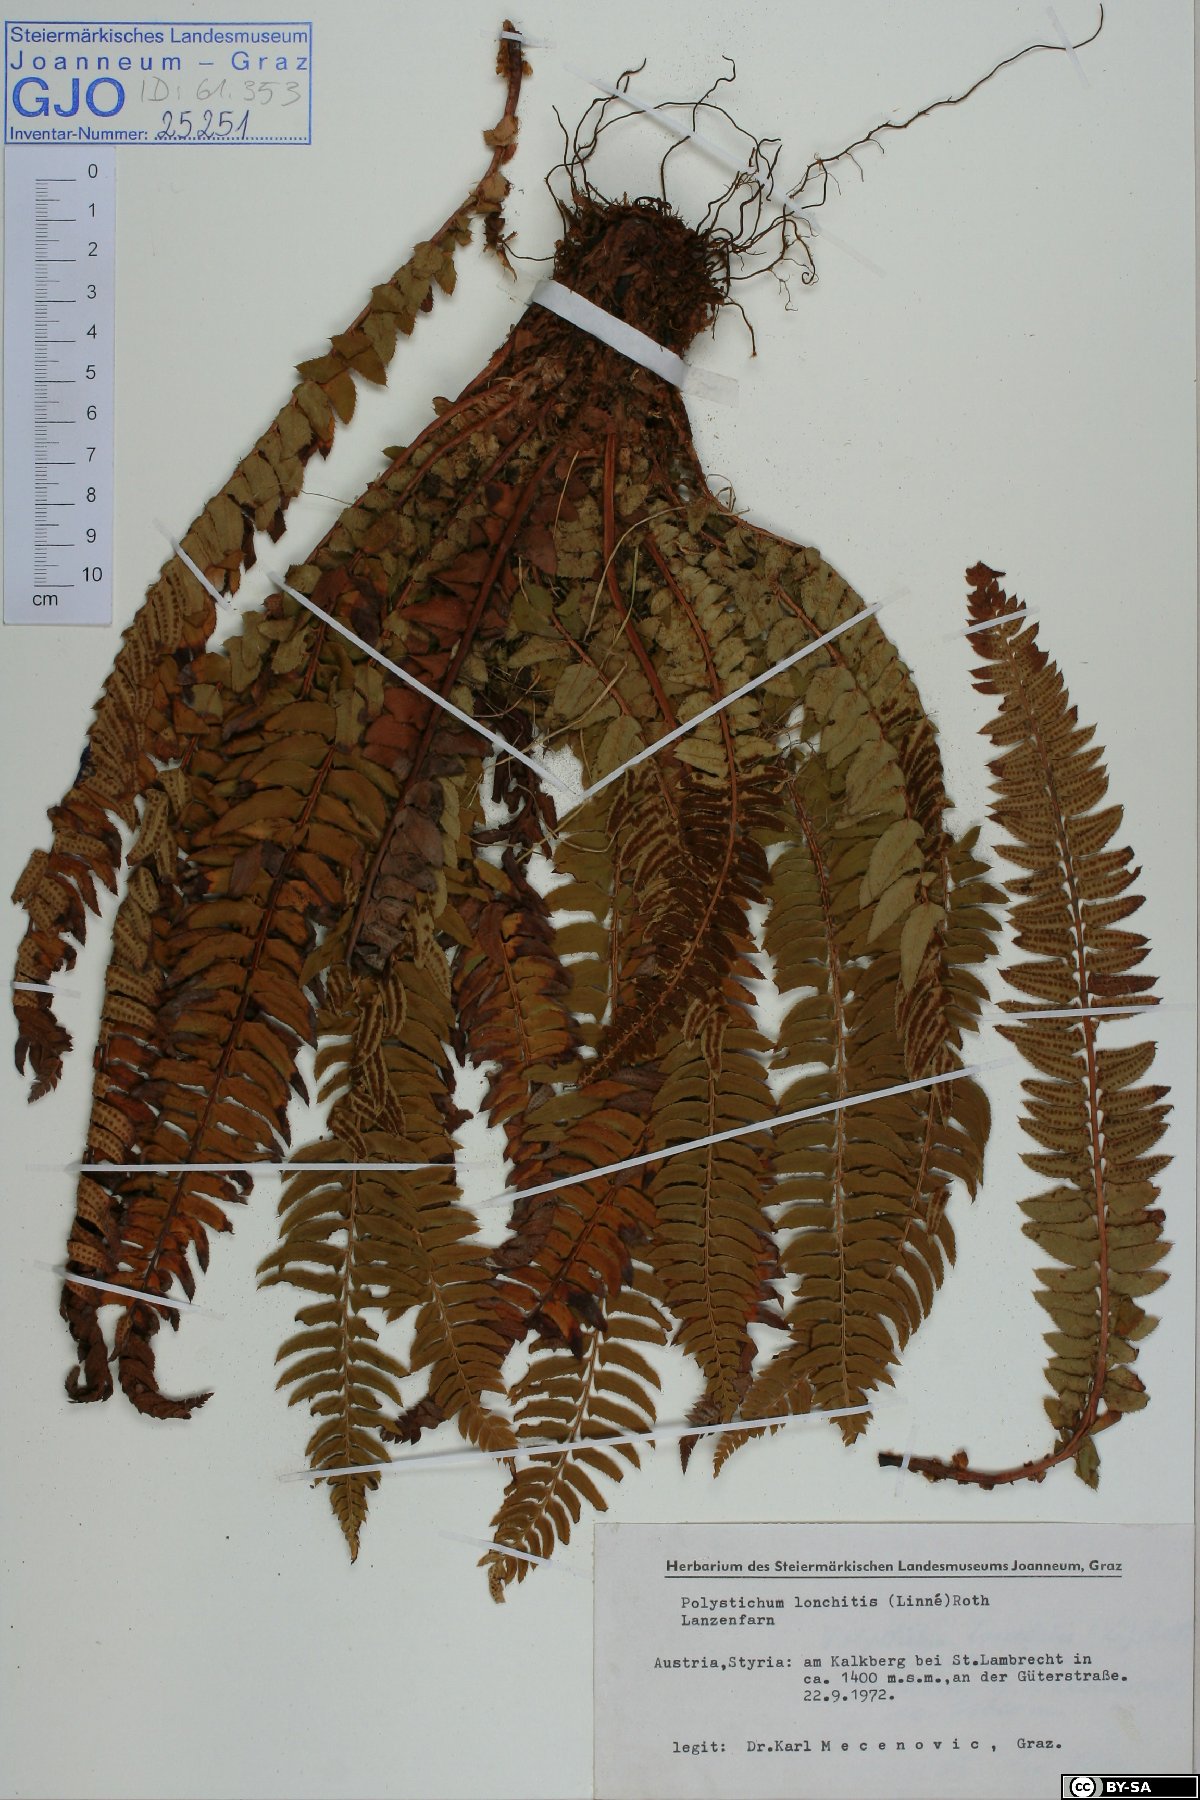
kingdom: Plantae
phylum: Tracheophyta
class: Polypodiopsida
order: Polypodiales
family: Dryopteridaceae
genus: Polystichum
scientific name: Polystichum lonchitis
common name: Holly fern
